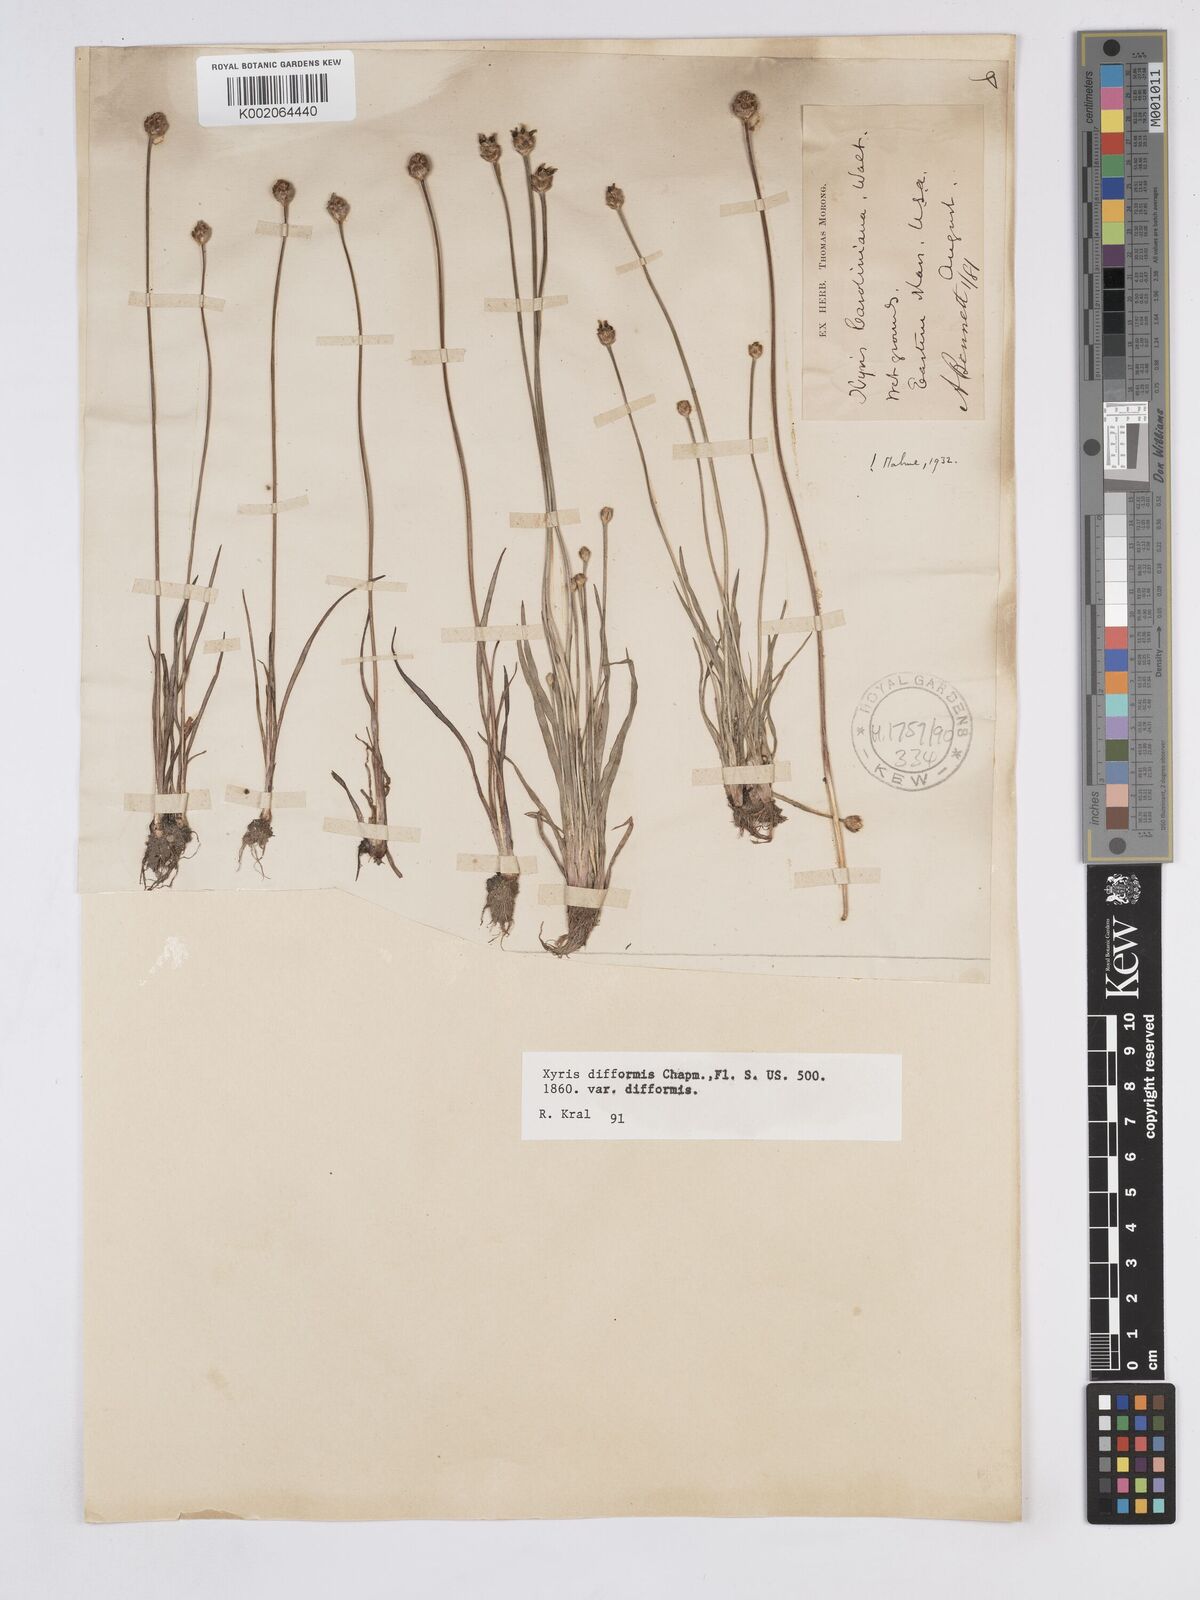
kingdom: Plantae
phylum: Tracheophyta
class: Liliopsida
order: Poales
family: Xyridaceae
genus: Xyris
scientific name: Xyris difformis
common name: Bog yellow-eyed-grass
